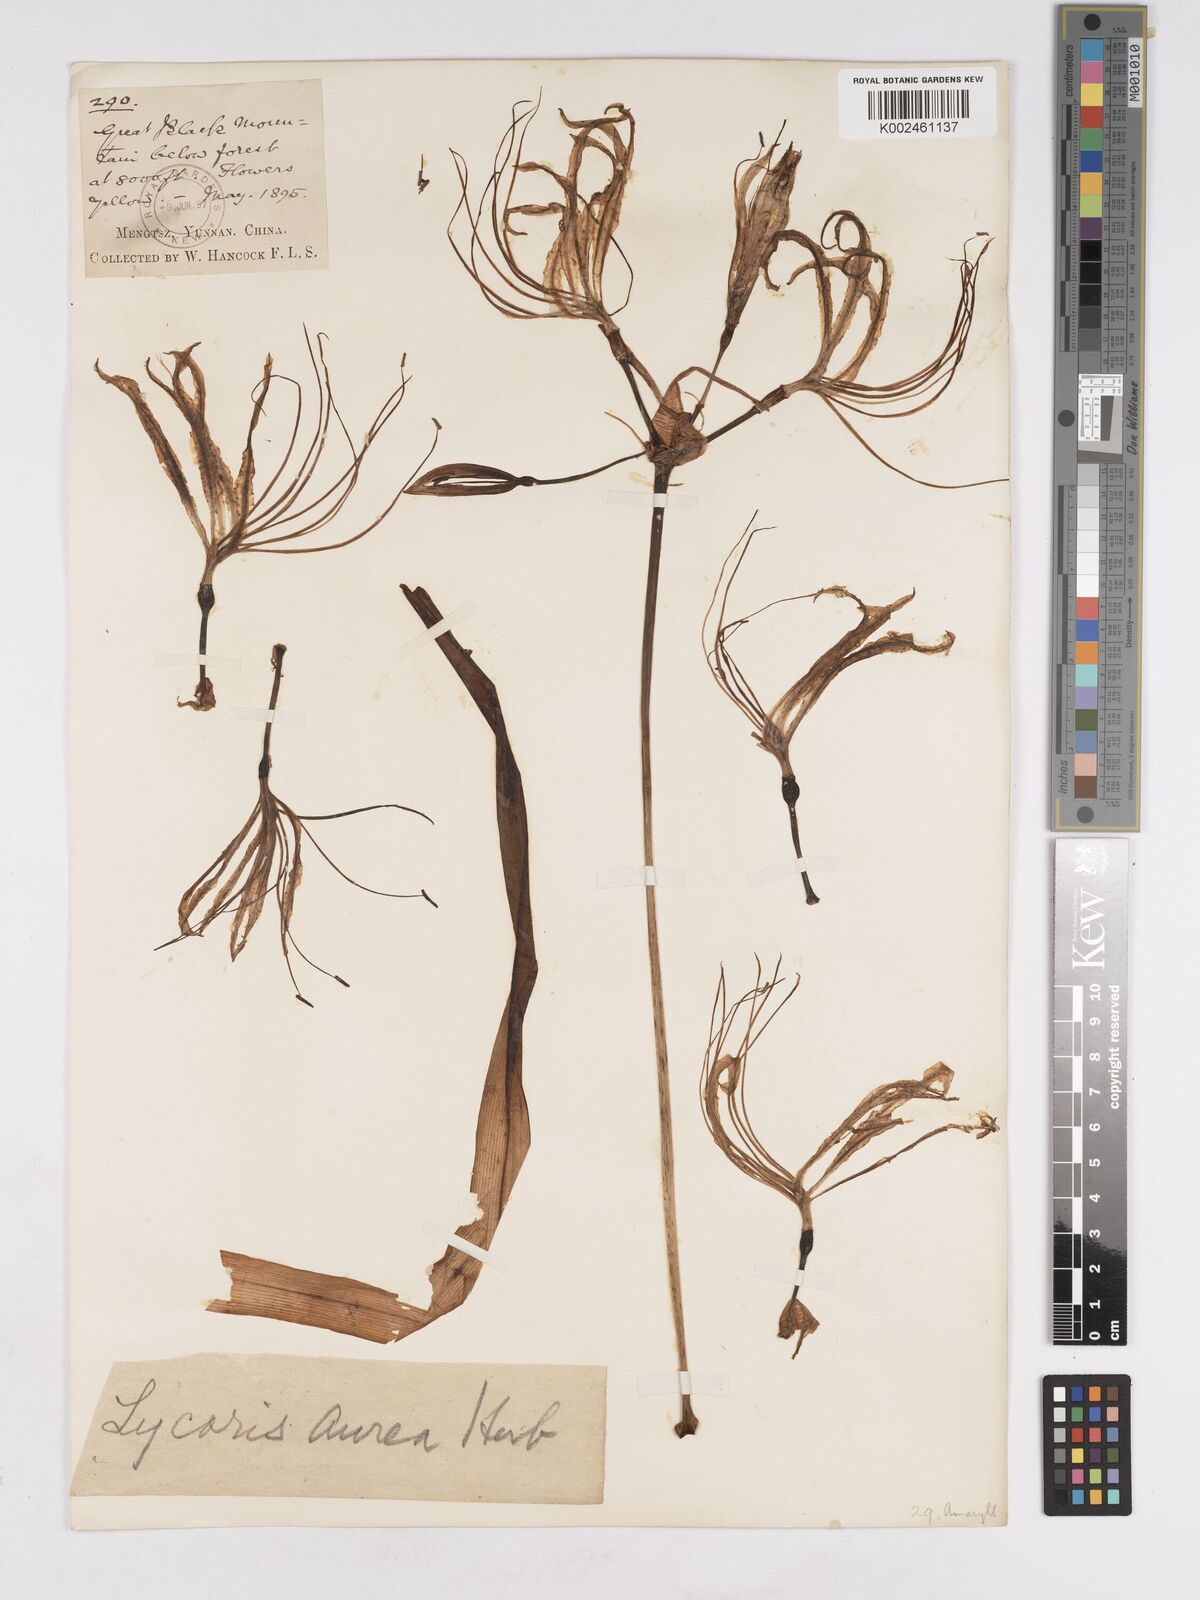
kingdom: Plantae
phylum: Tracheophyta
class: Liliopsida
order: Asparagales
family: Amaryllidaceae
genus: Lycoris
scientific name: Lycoris aurea
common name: Golden hurricane-lily
